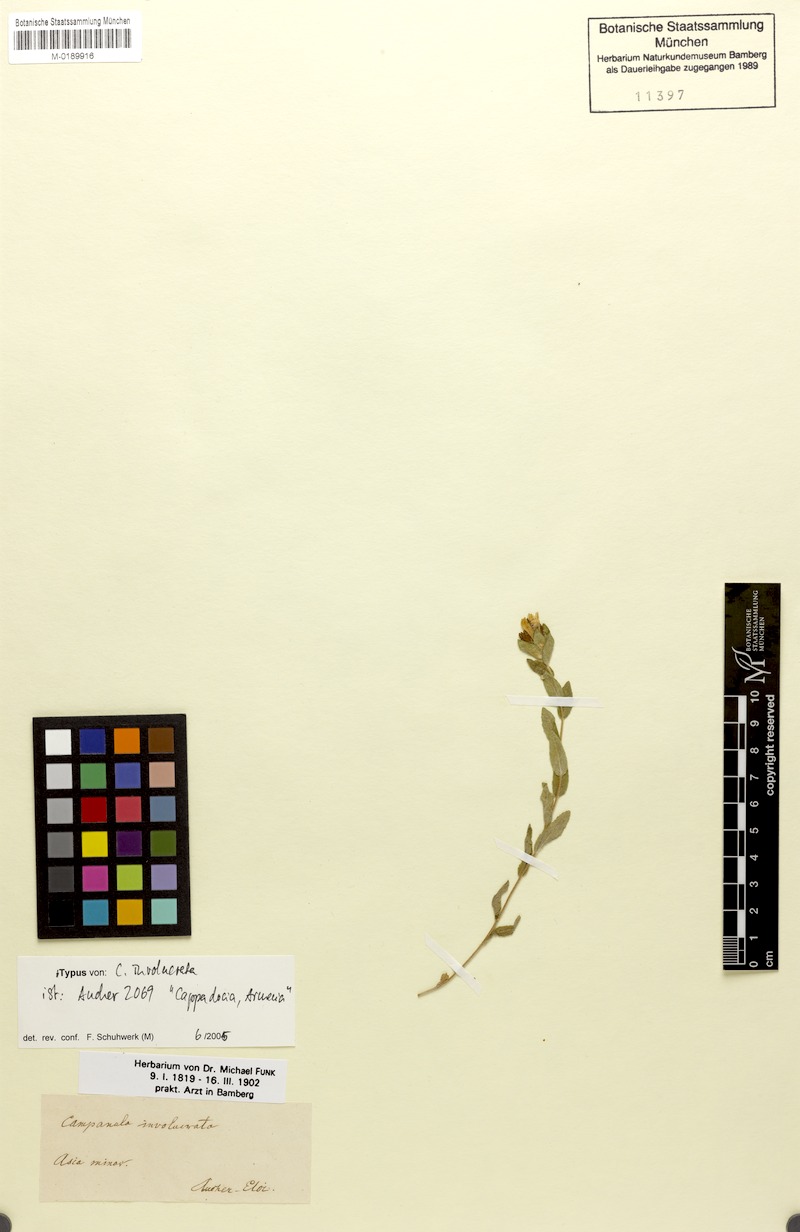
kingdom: Plantae
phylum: Tracheophyta
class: Magnoliopsida
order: Asterales
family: Campanulaceae
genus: Campanula
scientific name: Campanula involucrata
